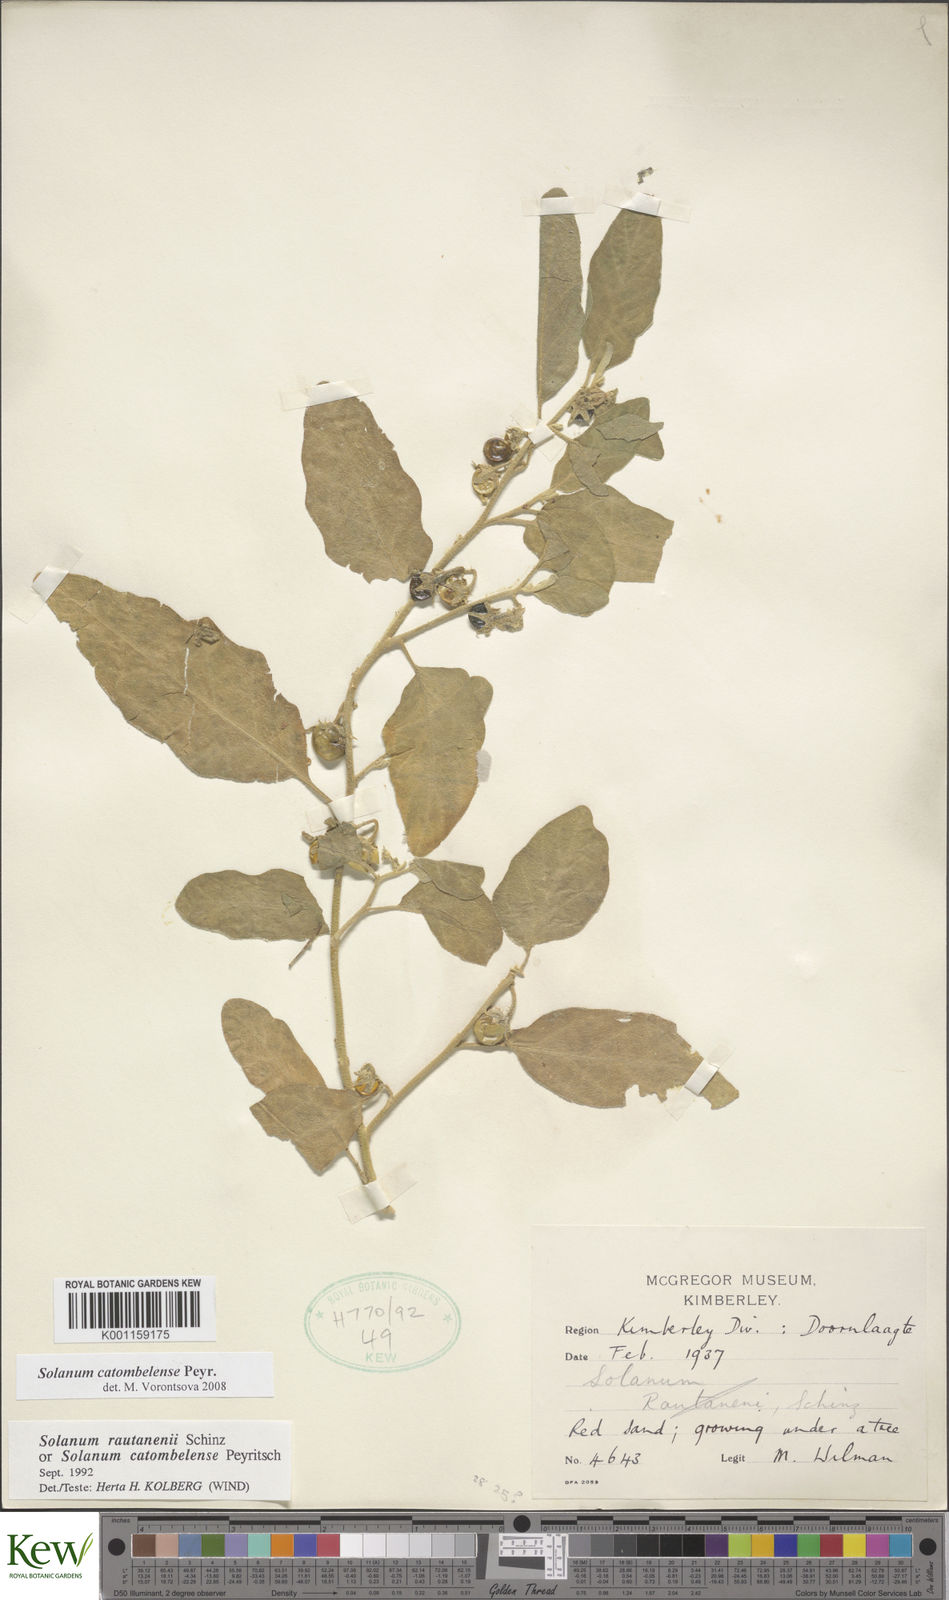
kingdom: Plantae
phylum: Tracheophyta
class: Magnoliopsida
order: Solanales
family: Solanaceae
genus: Solanum
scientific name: Solanum catombelense
